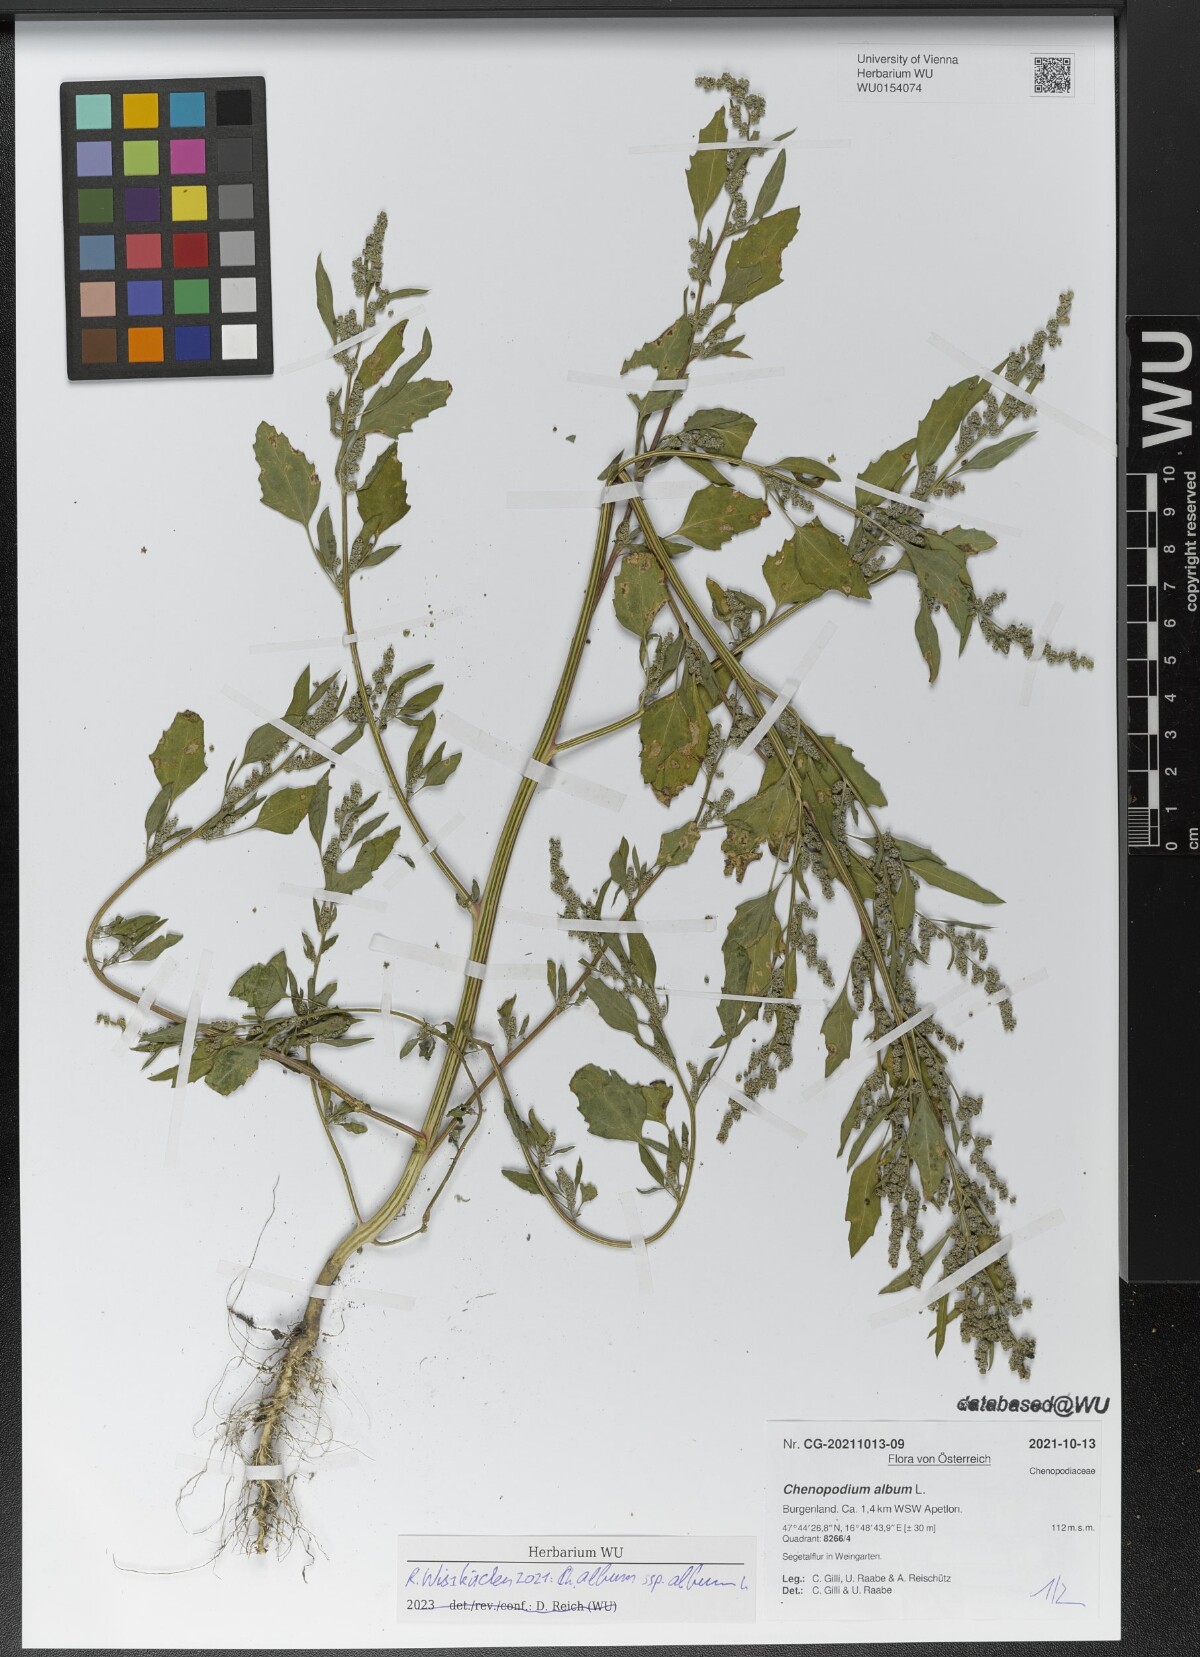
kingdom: Plantae
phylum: Tracheophyta
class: Magnoliopsida
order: Caryophyllales
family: Amaranthaceae
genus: Chenopodium
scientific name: Chenopodium album
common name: Fat-hen
